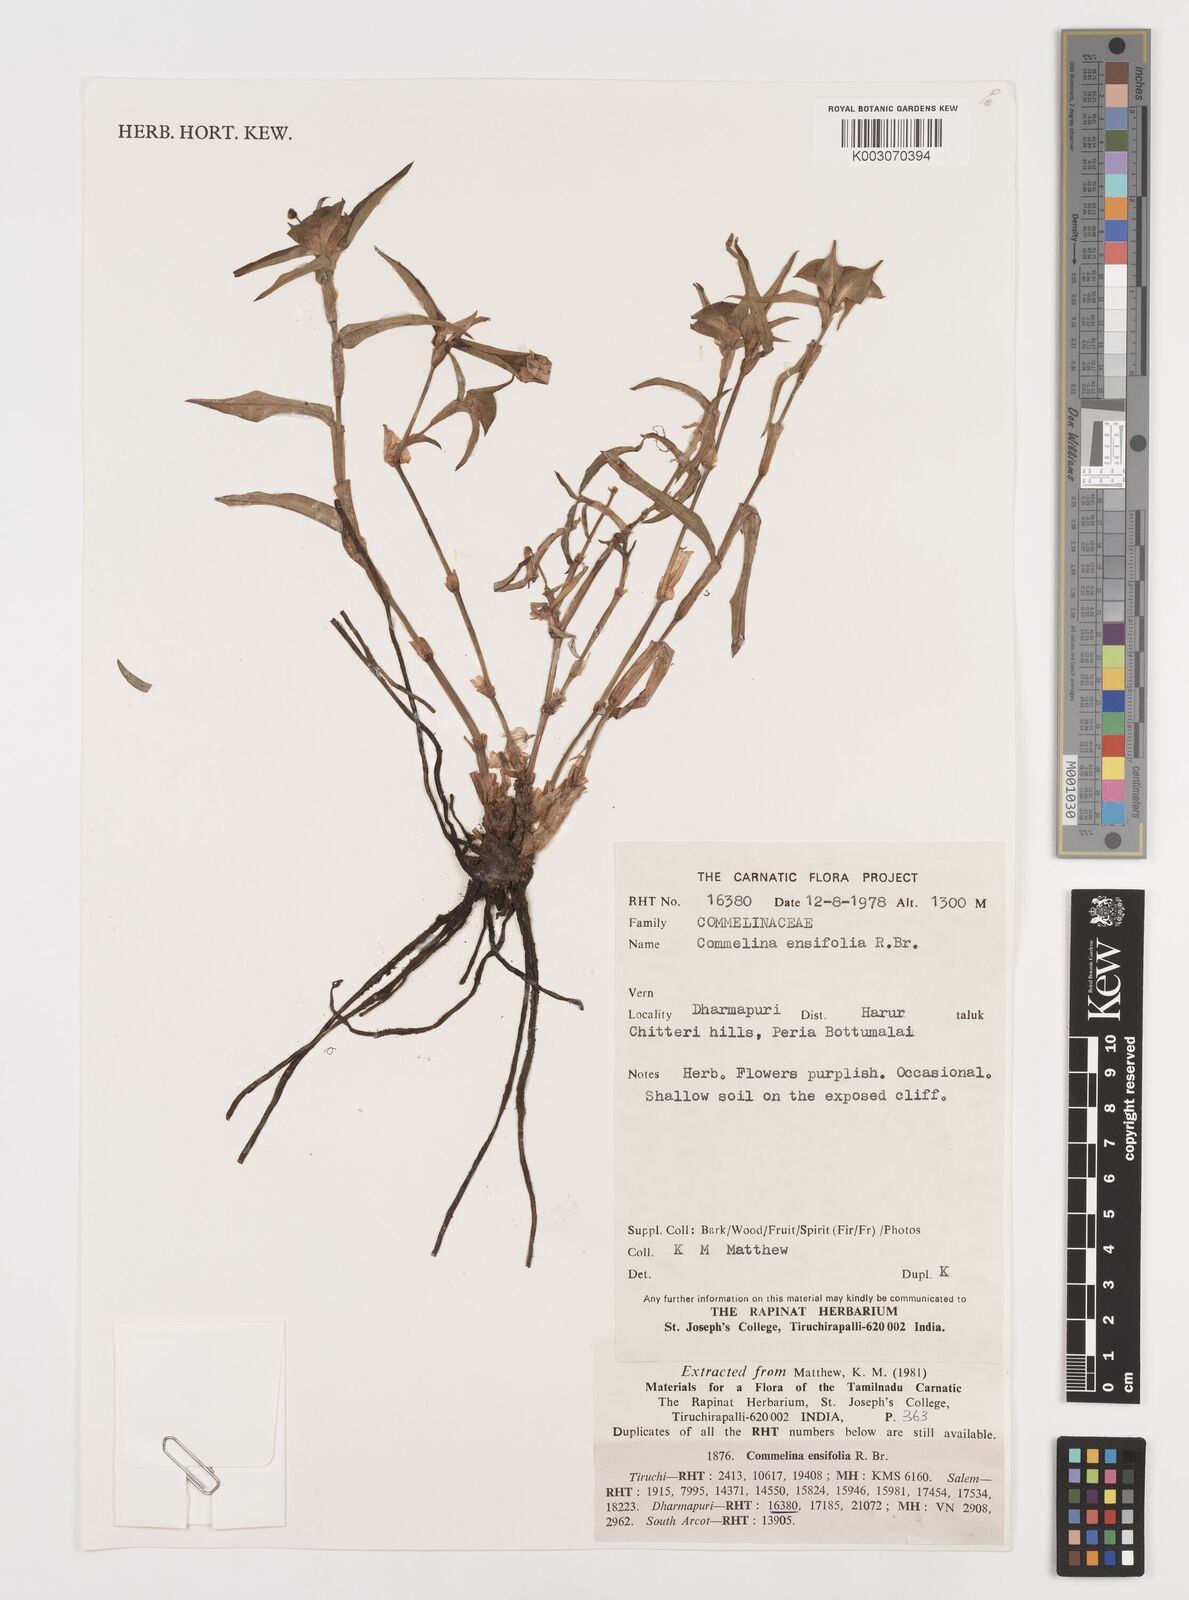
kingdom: Plantae
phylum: Tracheophyta
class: Liliopsida
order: Commelinales
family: Commelinaceae
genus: Commelina
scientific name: Commelina ensifolia
